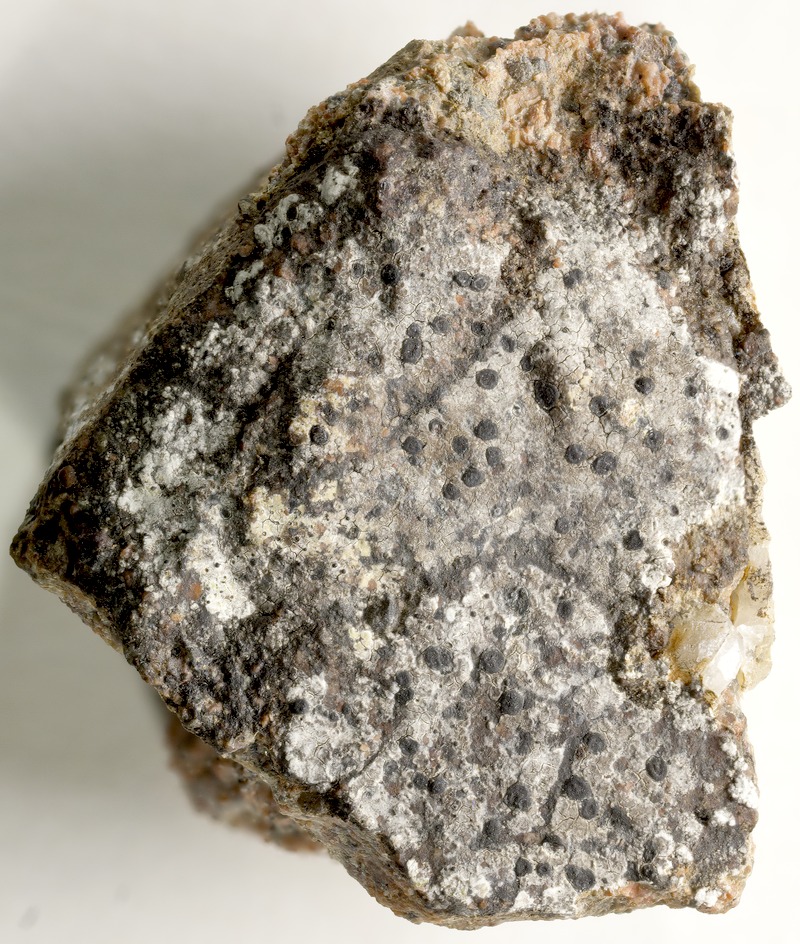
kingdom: Fungi
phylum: Ascomycota
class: Eurotiomycetes
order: Verrucariales
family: Verrucariaceae
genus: Phaeospora
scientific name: Phaeospora rimosicola
